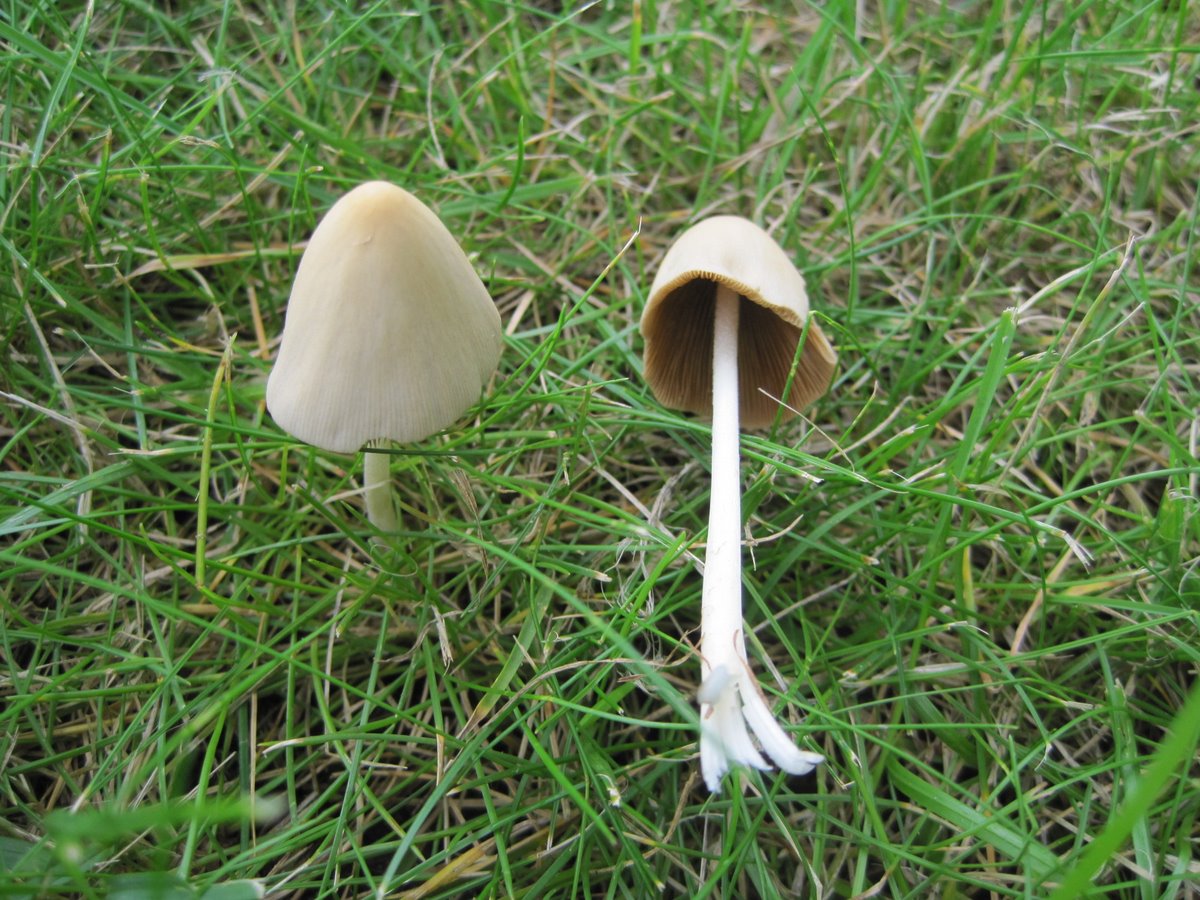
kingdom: Fungi
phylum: Basidiomycota
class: Agaricomycetes
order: Agaricales
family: Bolbitiaceae
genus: Conocybe
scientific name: Conocybe apala
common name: mælkehvid keglehat
